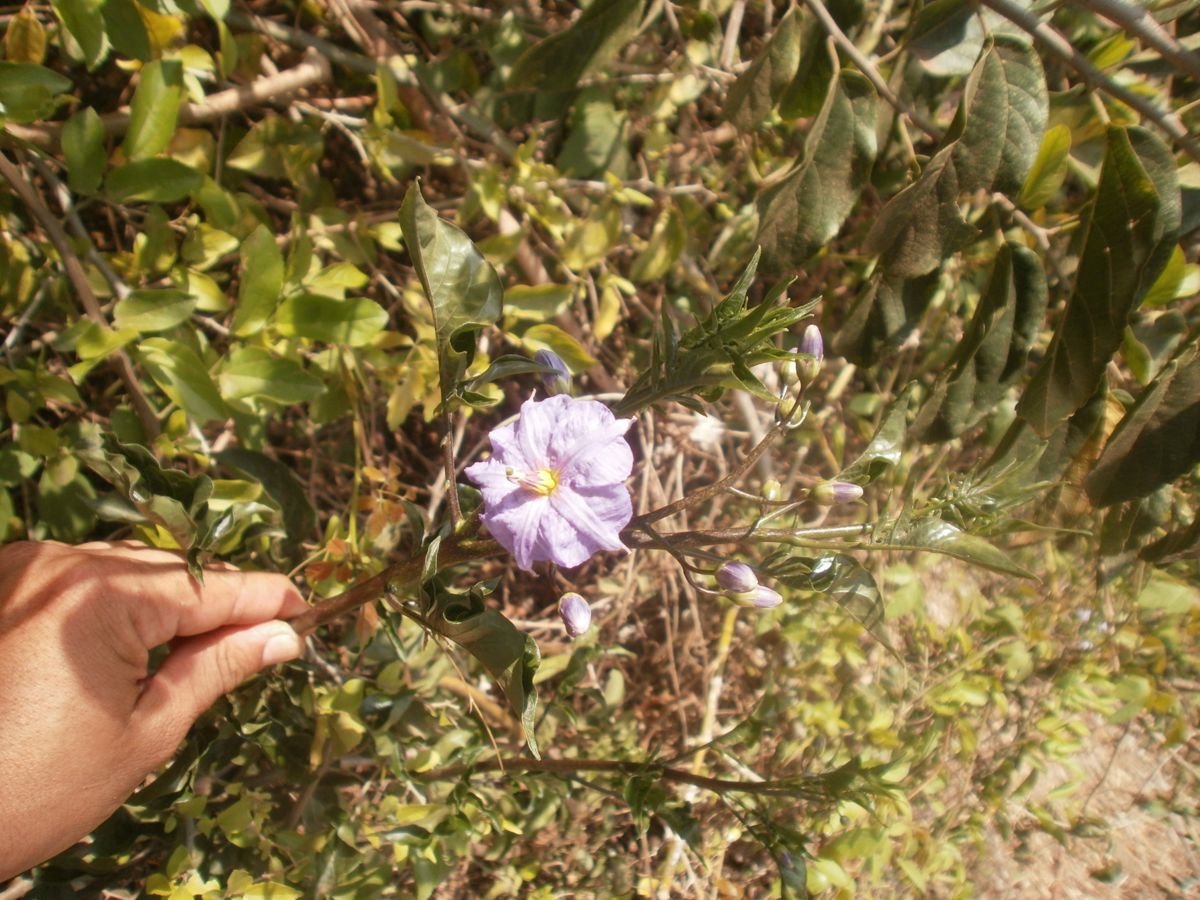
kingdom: Plantae
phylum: Tracheophyta
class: Magnoliopsida
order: Solanales
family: Solanaceae
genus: Solanum
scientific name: Solanum wendlandii
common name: Costa rican nightshade
